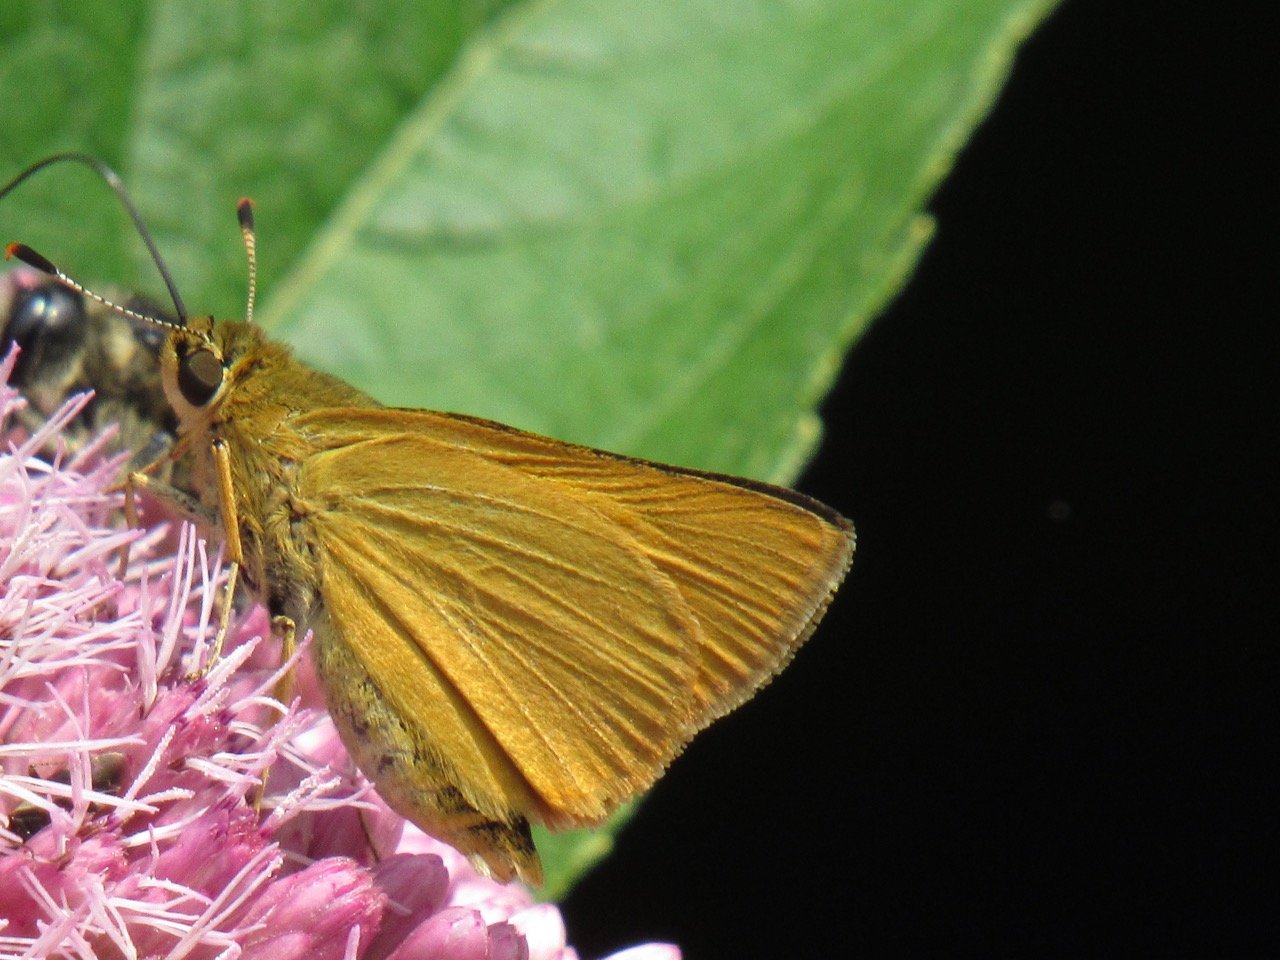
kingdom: Animalia
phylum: Arthropoda
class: Insecta
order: Lepidoptera
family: Hesperiidae
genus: Atrytone
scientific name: Atrytone delaware
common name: Delaware Skipper
